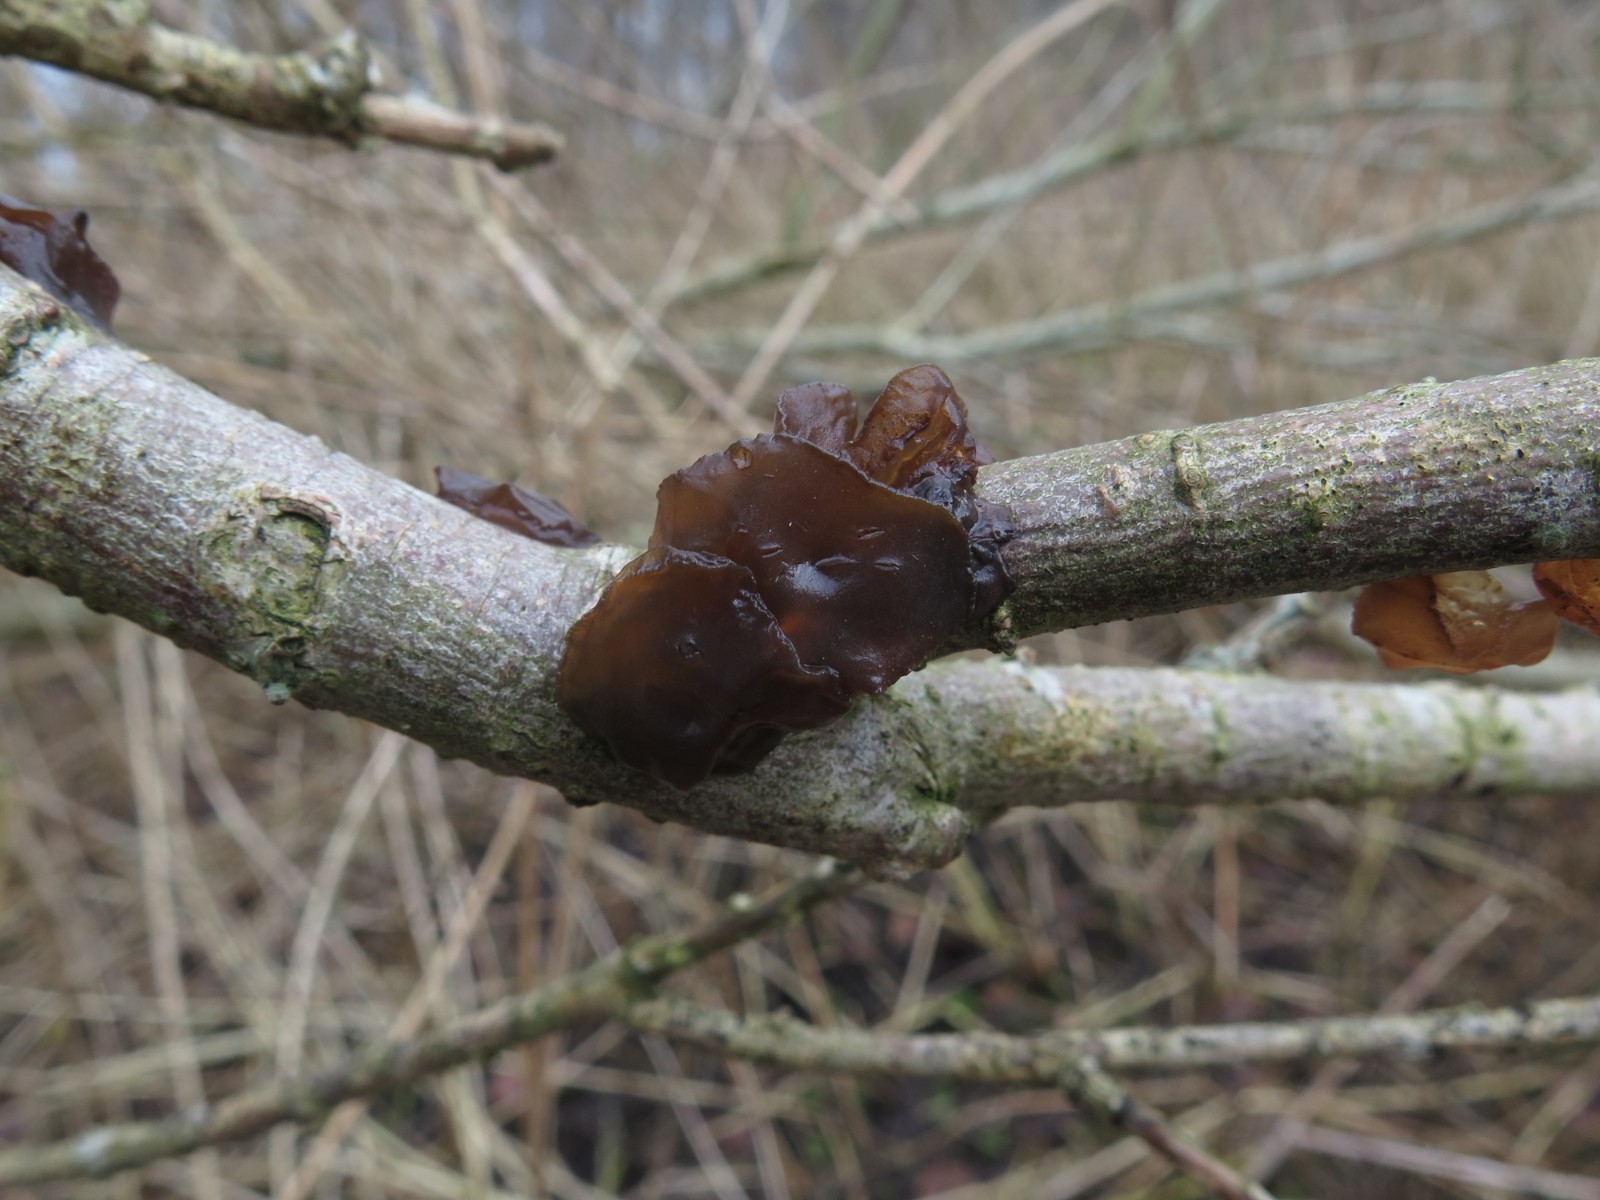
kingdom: Fungi
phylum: Basidiomycota
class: Agaricomycetes
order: Auriculariales
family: Auriculariaceae
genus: Exidia
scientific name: Exidia recisa
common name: pile-bævretop
